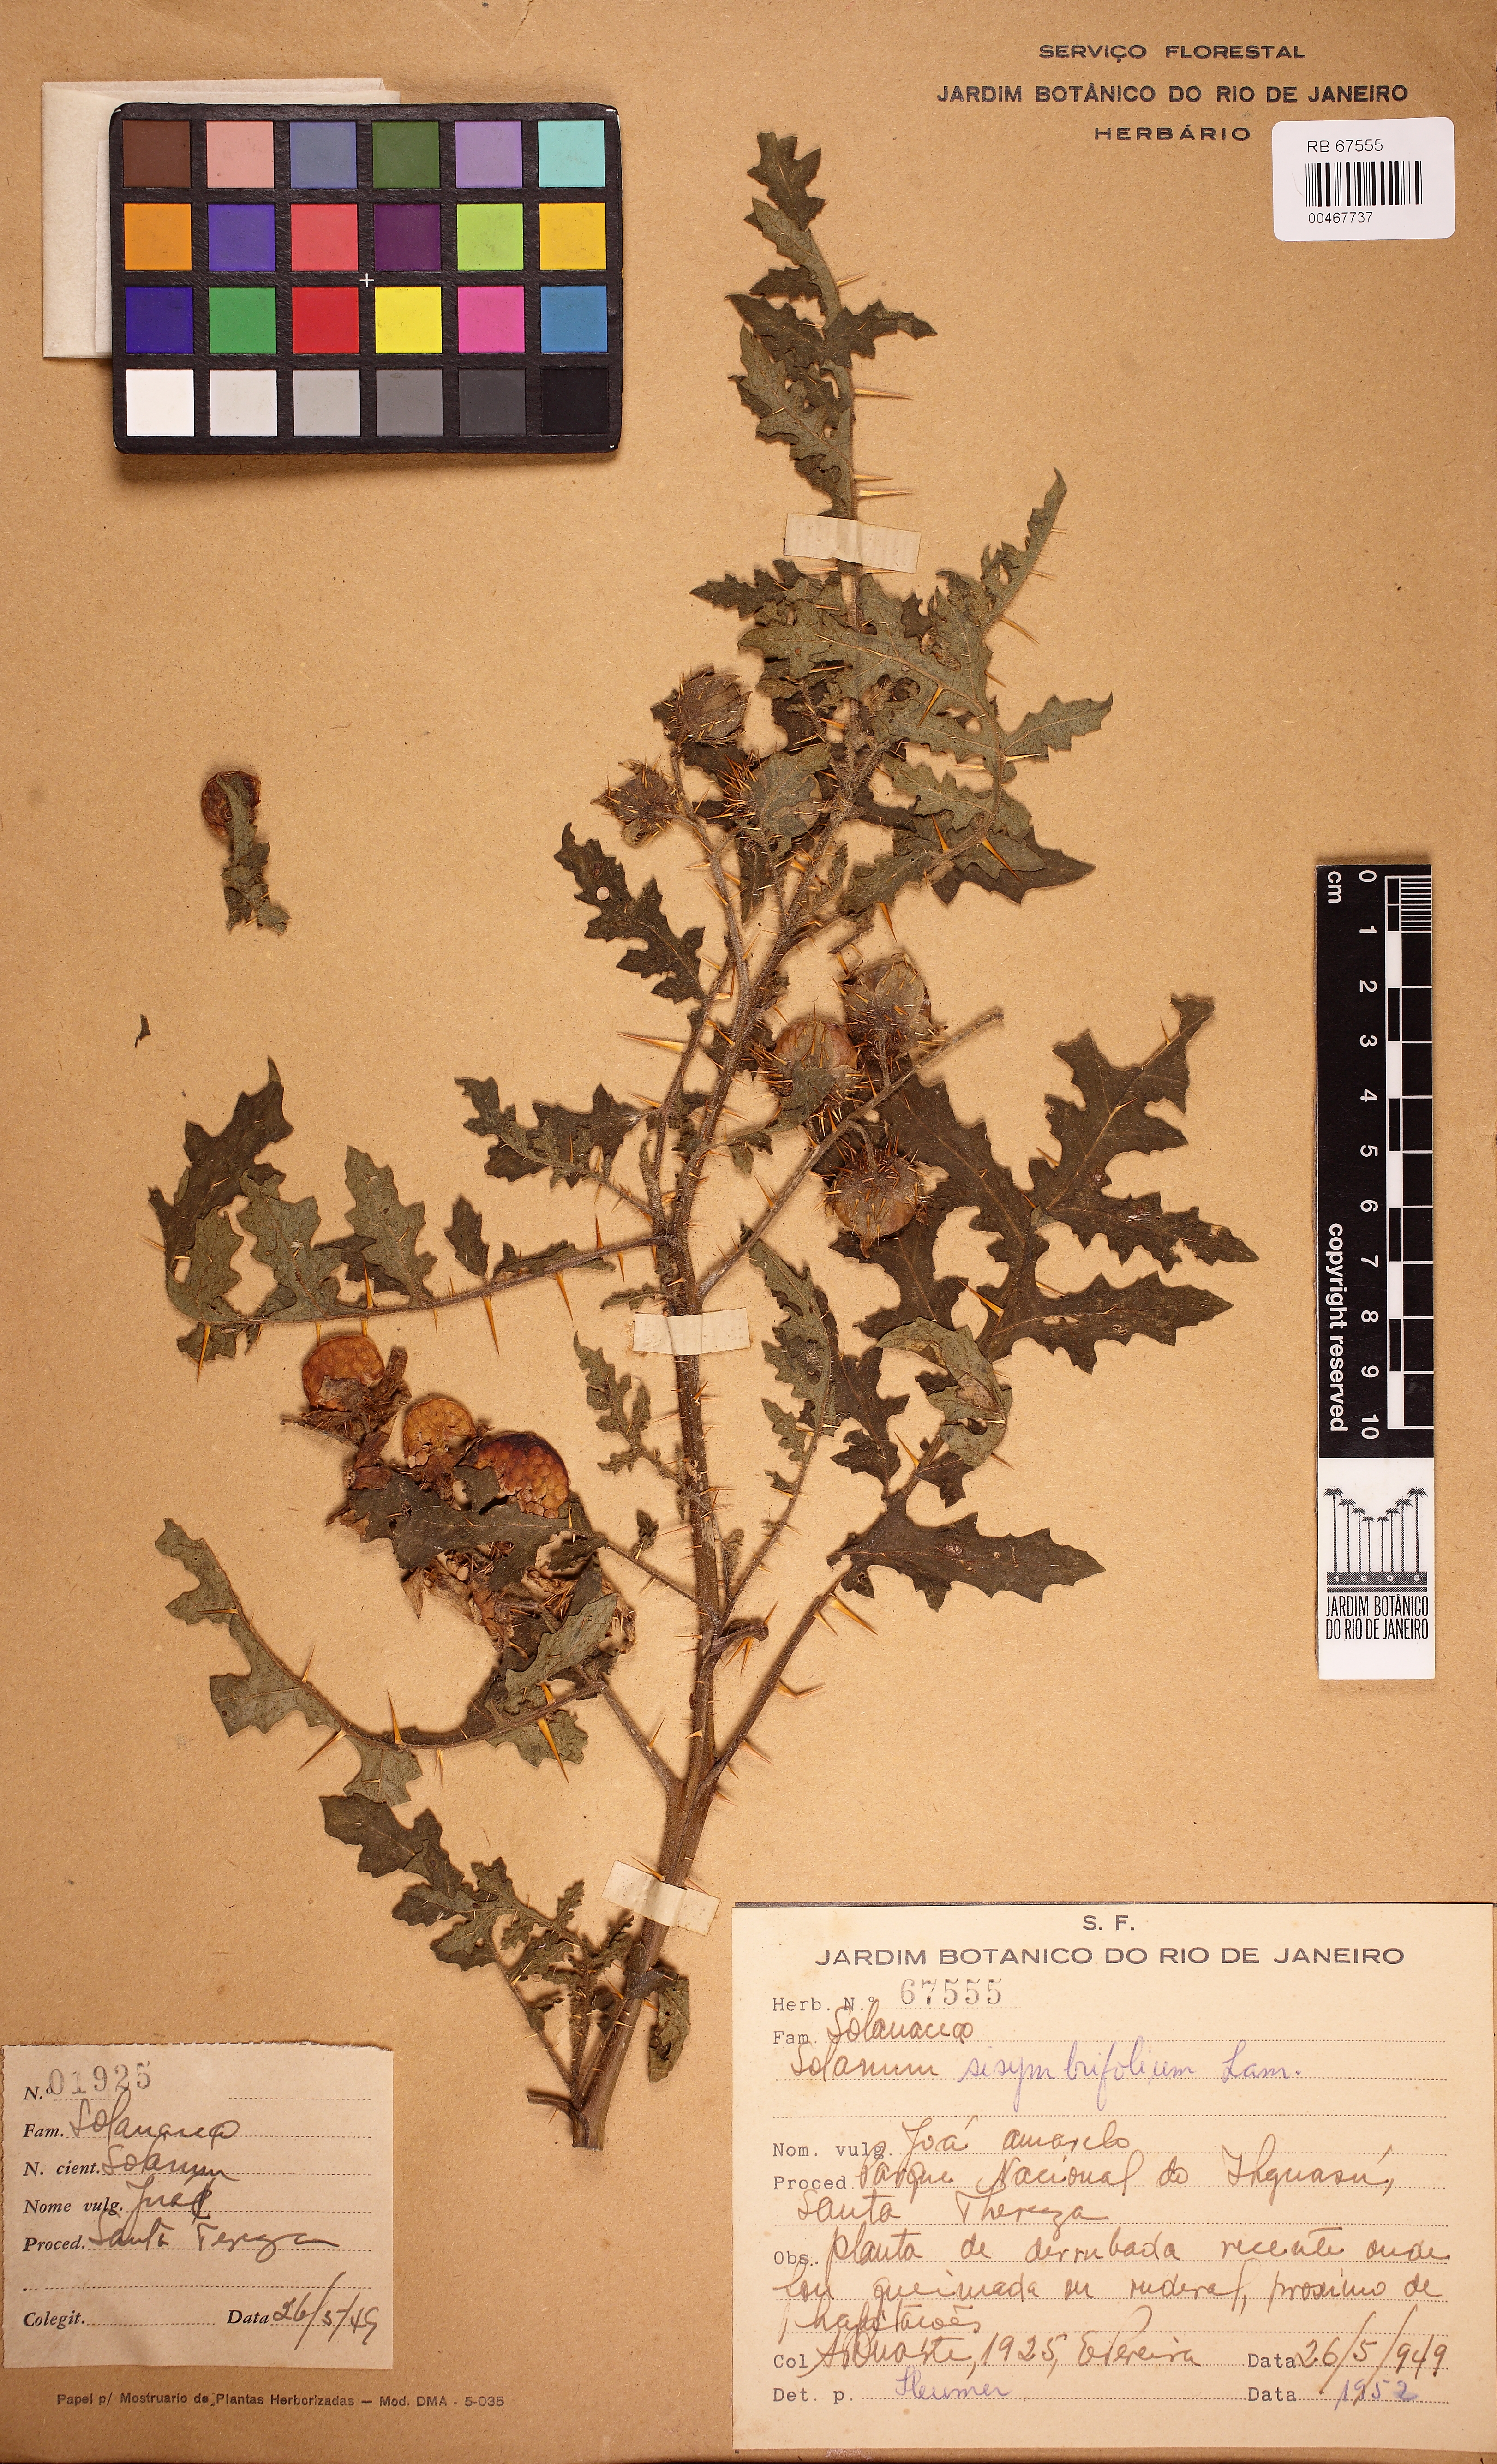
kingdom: Plantae
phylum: Tracheophyta
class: Magnoliopsida
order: Solanales
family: Solanaceae
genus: Solanum
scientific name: Solanum sisymbriifolium
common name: Red buffalo-bur
